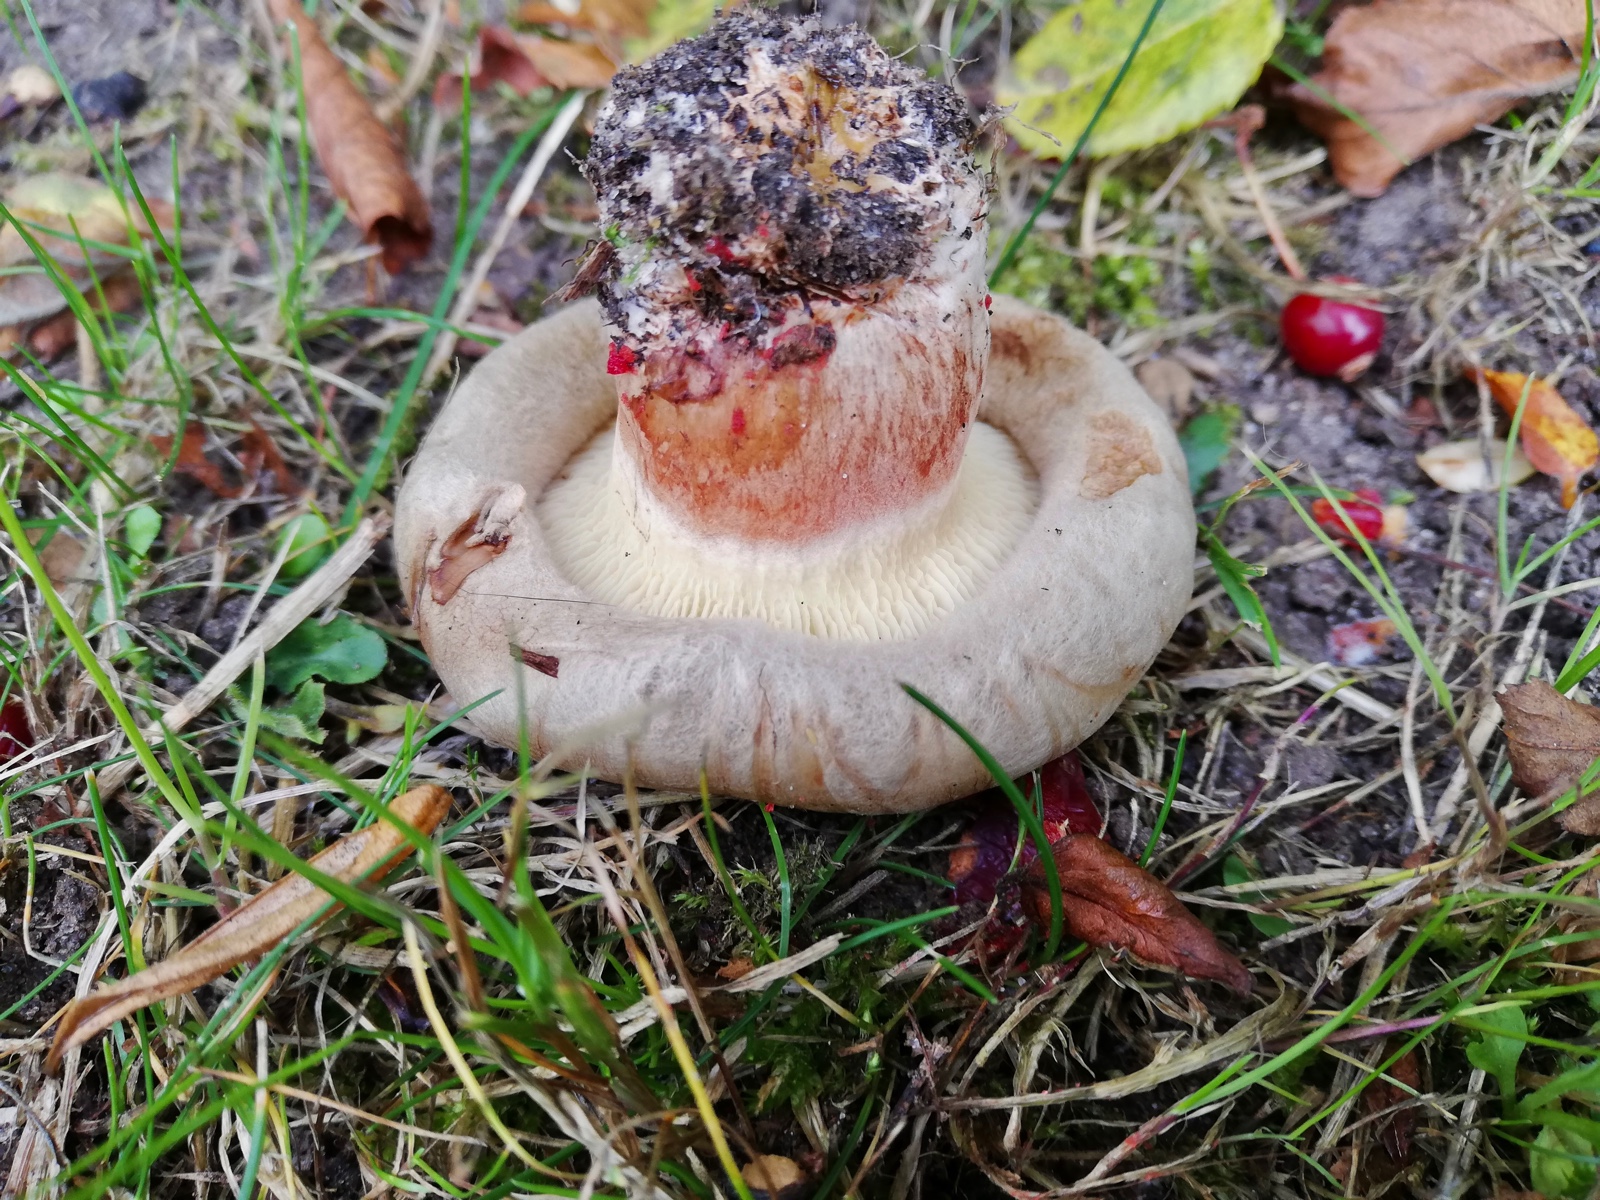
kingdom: Fungi
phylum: Basidiomycota
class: Agaricomycetes
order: Boletales
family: Paxillaceae
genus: Paxillus
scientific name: Paxillus
